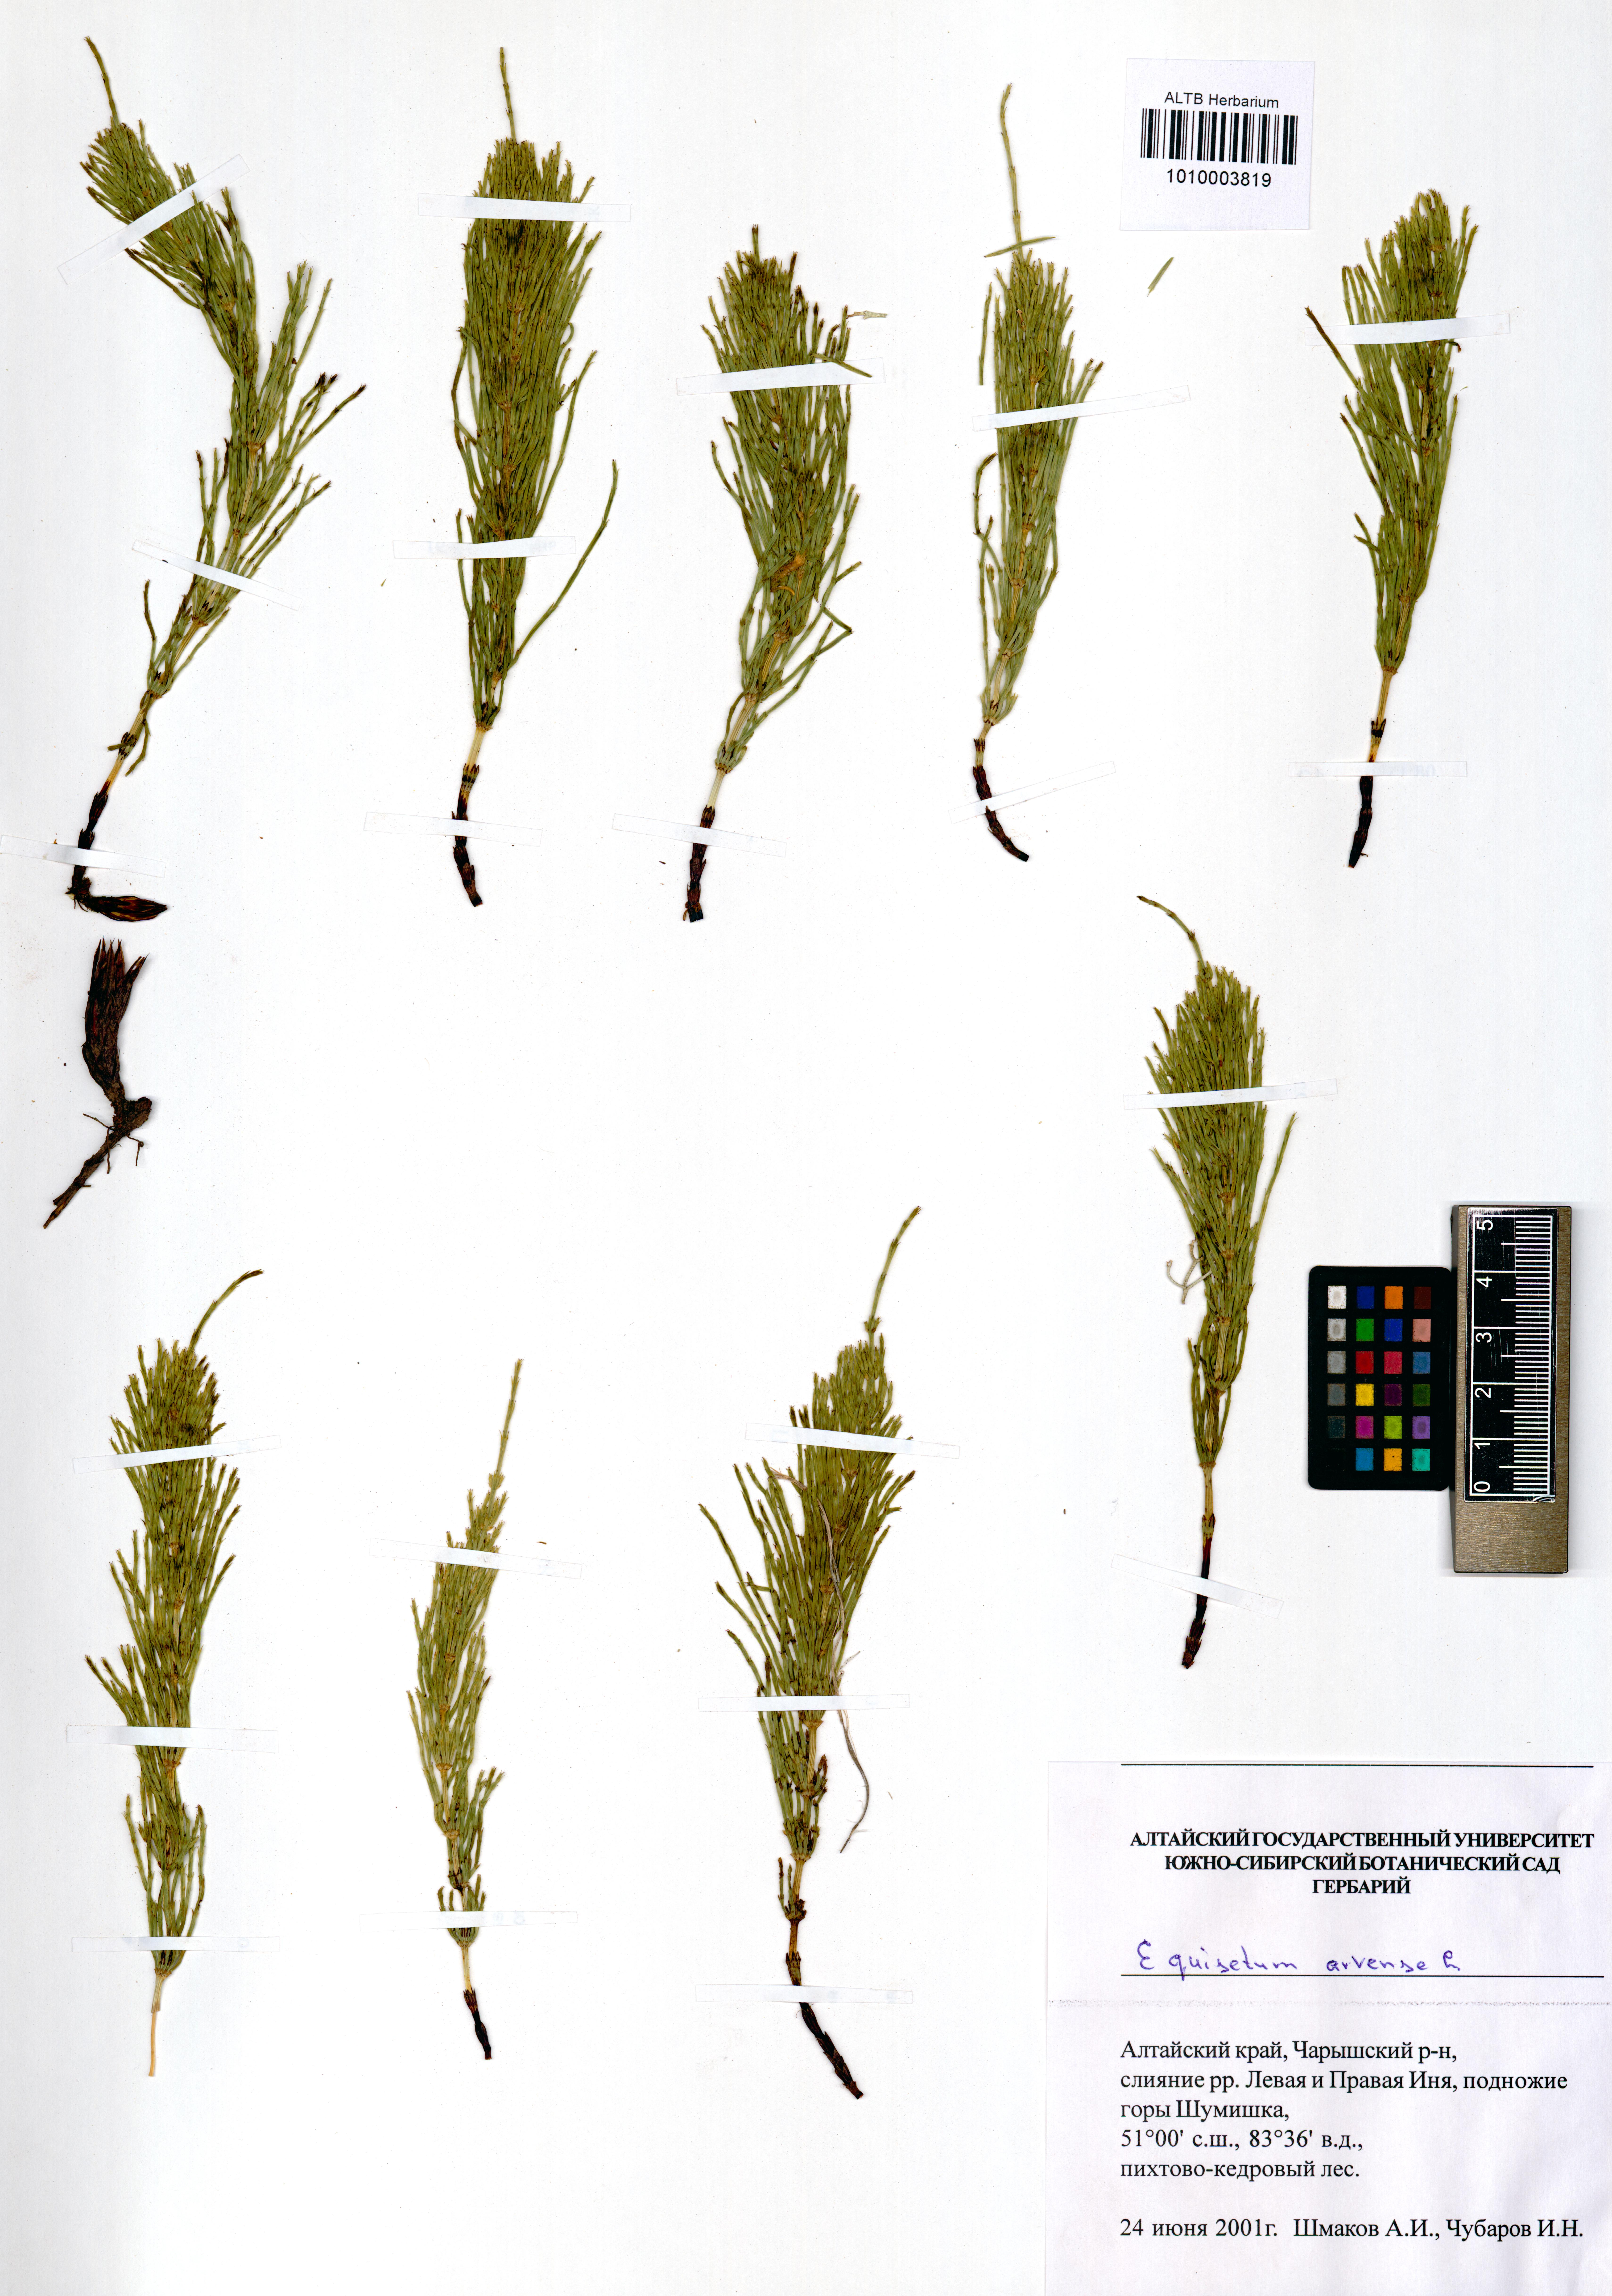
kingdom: Plantae
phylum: Tracheophyta
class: Polypodiopsida
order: Equisetales
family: Equisetaceae
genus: Equisetum
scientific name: Equisetum arvense
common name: Field horsetail
